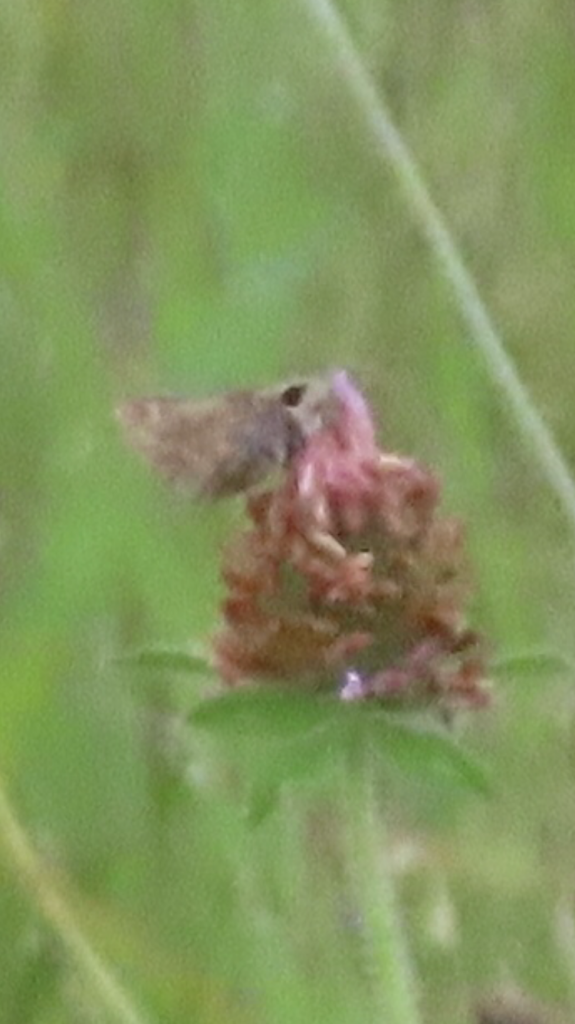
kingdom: Animalia
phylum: Arthropoda
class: Insecta
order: Lepidoptera
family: Hesperiidae
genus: Atalopedes
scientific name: Atalopedes campestris
